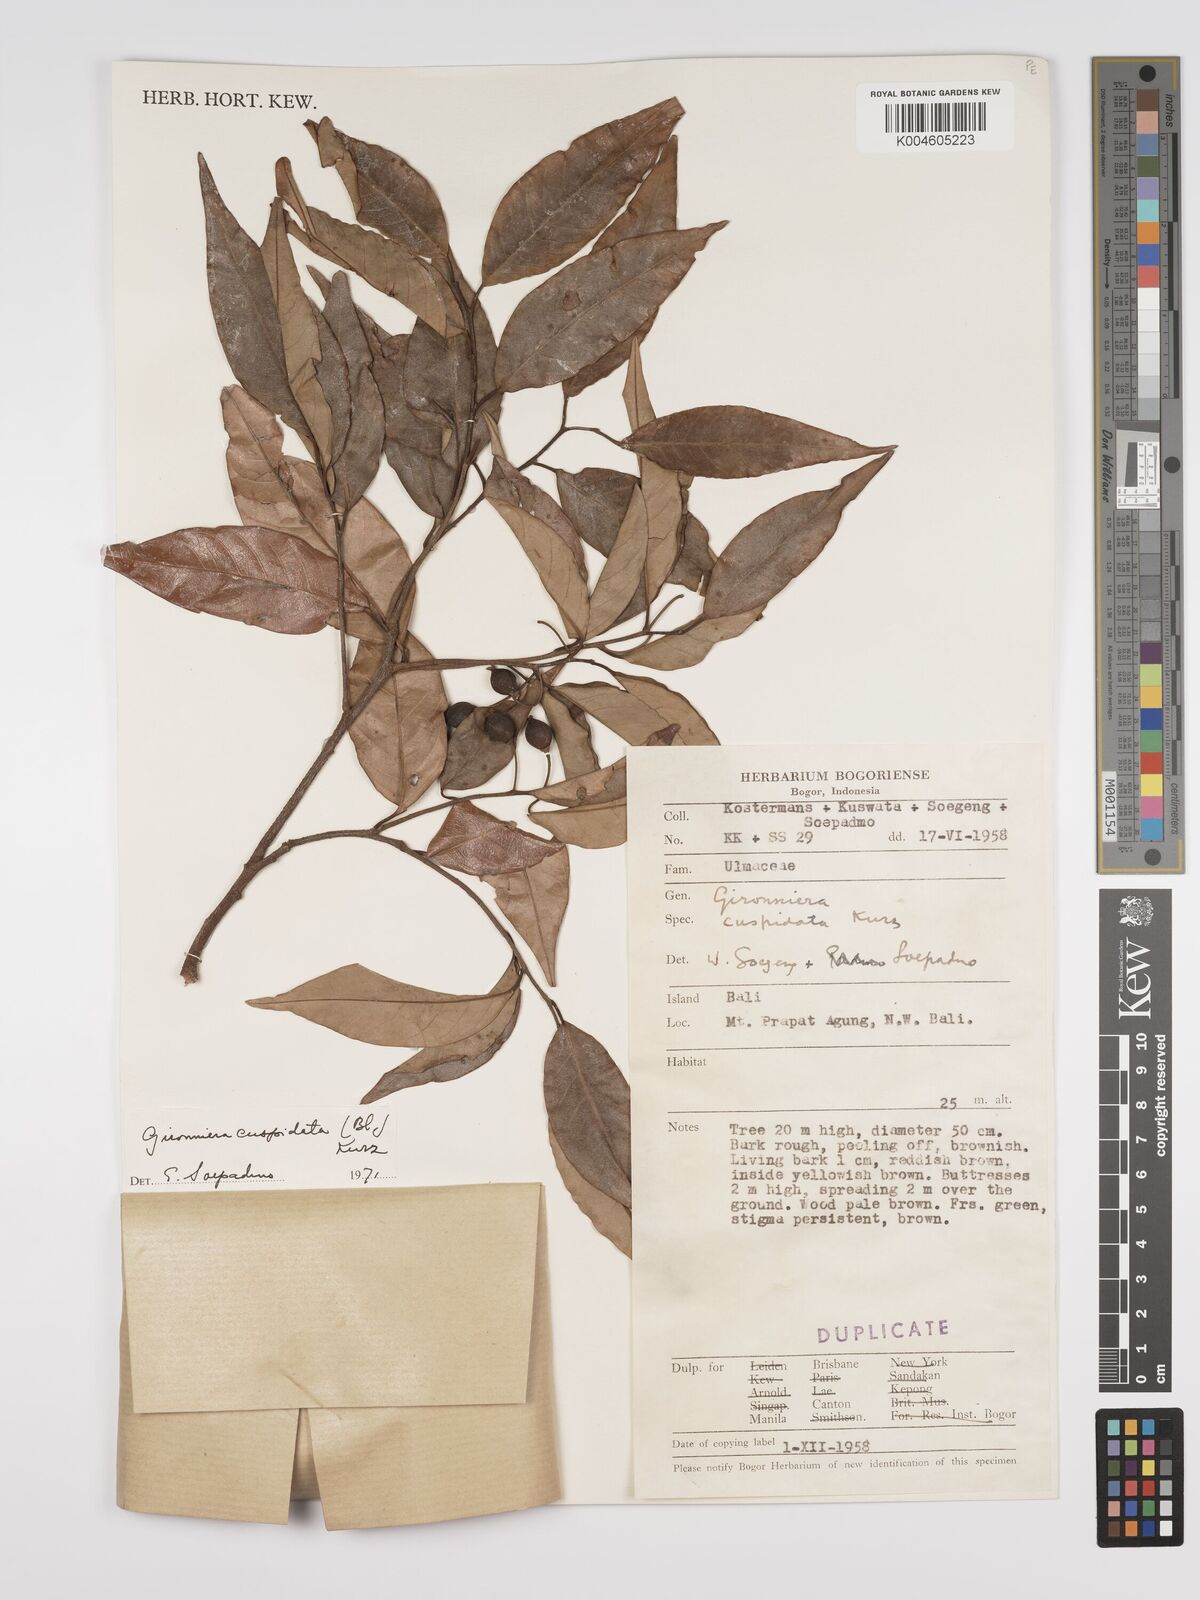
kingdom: Plantae
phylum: Tracheophyta
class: Magnoliopsida
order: Rosales
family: Cannabaceae
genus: Aphananthe
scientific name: Aphananthe cuspidata
